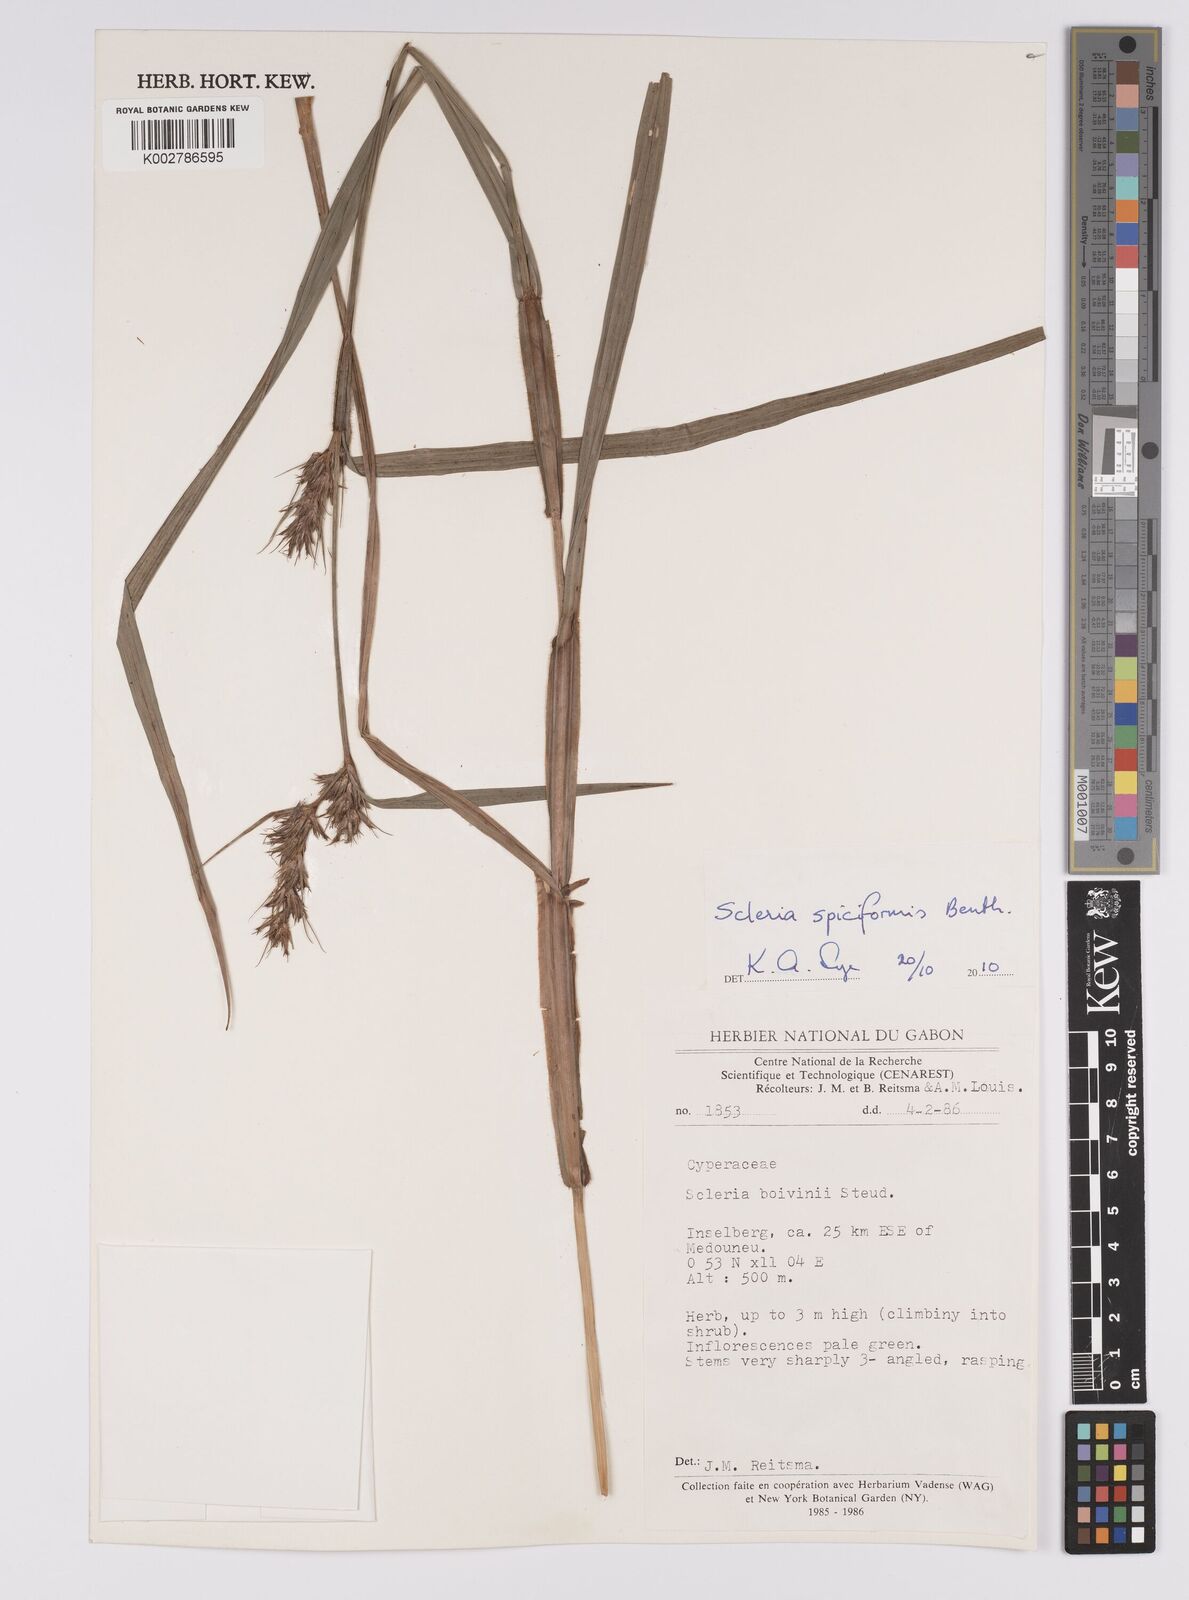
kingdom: Plantae
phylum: Tracheophyta
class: Liliopsida
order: Poales
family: Cyperaceae
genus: Scleria
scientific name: Scleria spiciformis
